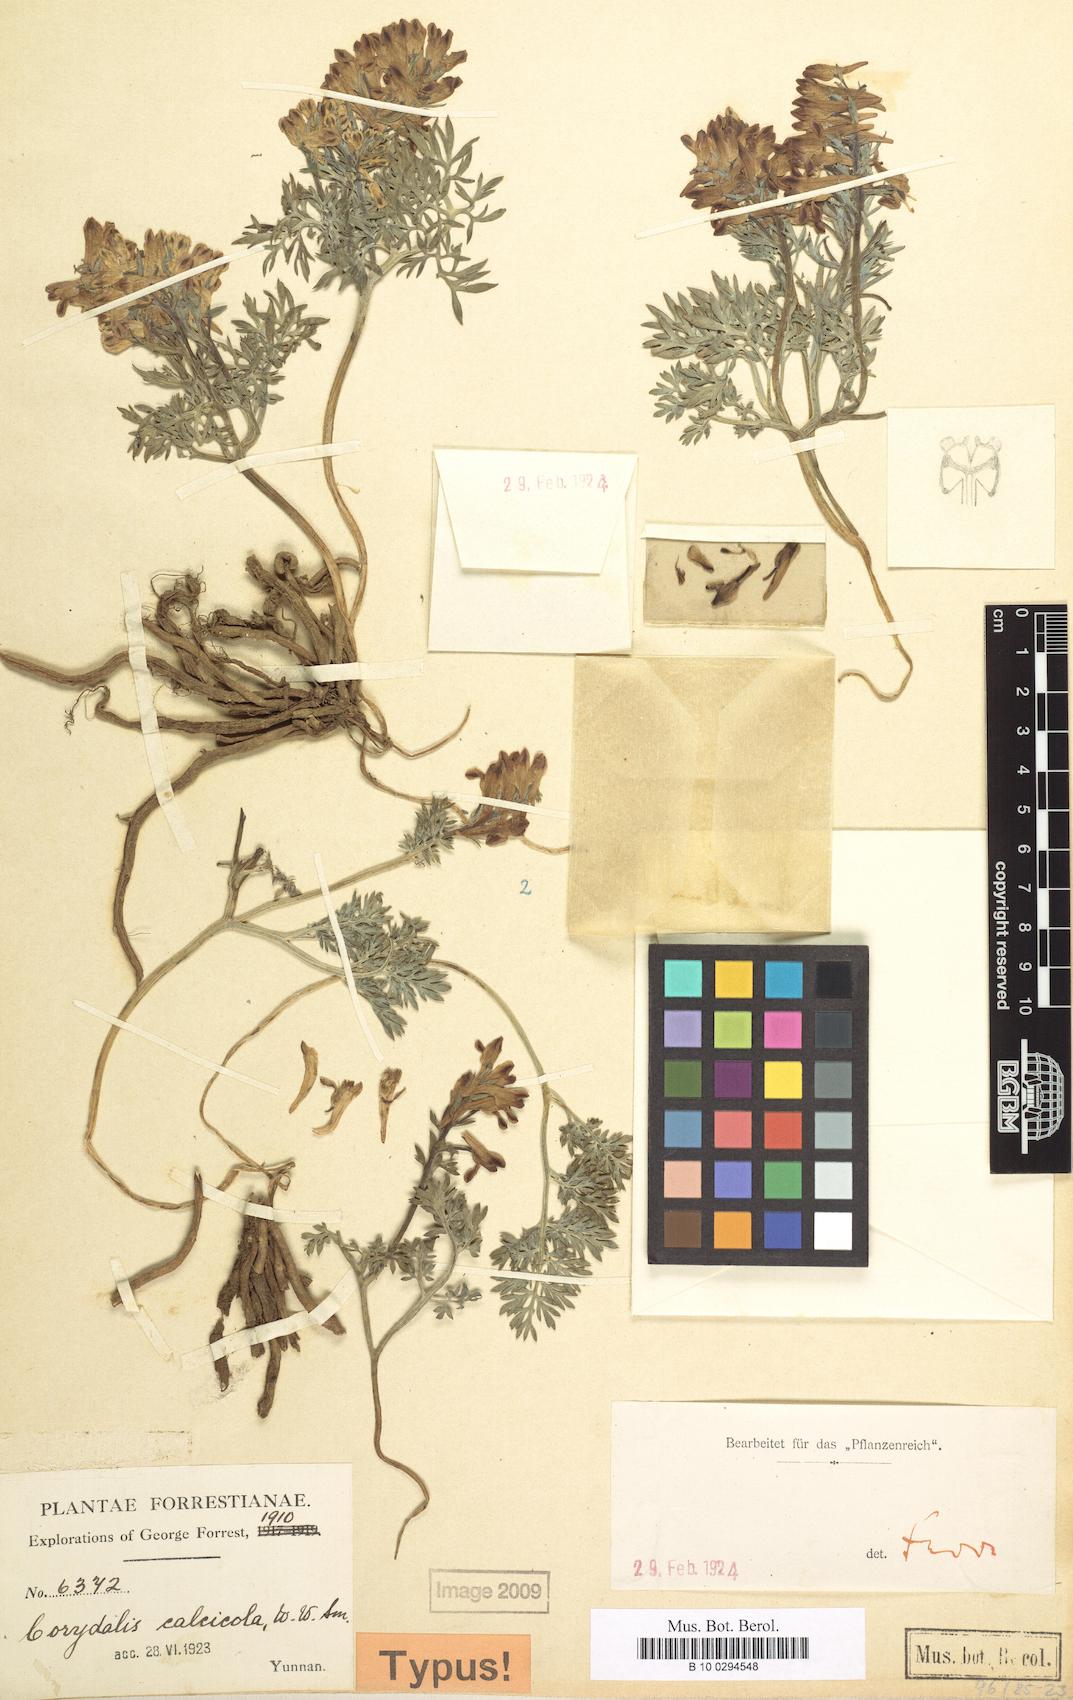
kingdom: Plantae
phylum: Tracheophyta
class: Magnoliopsida
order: Ranunculales
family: Papaveraceae
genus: Corydalis
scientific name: Corydalis hannae
